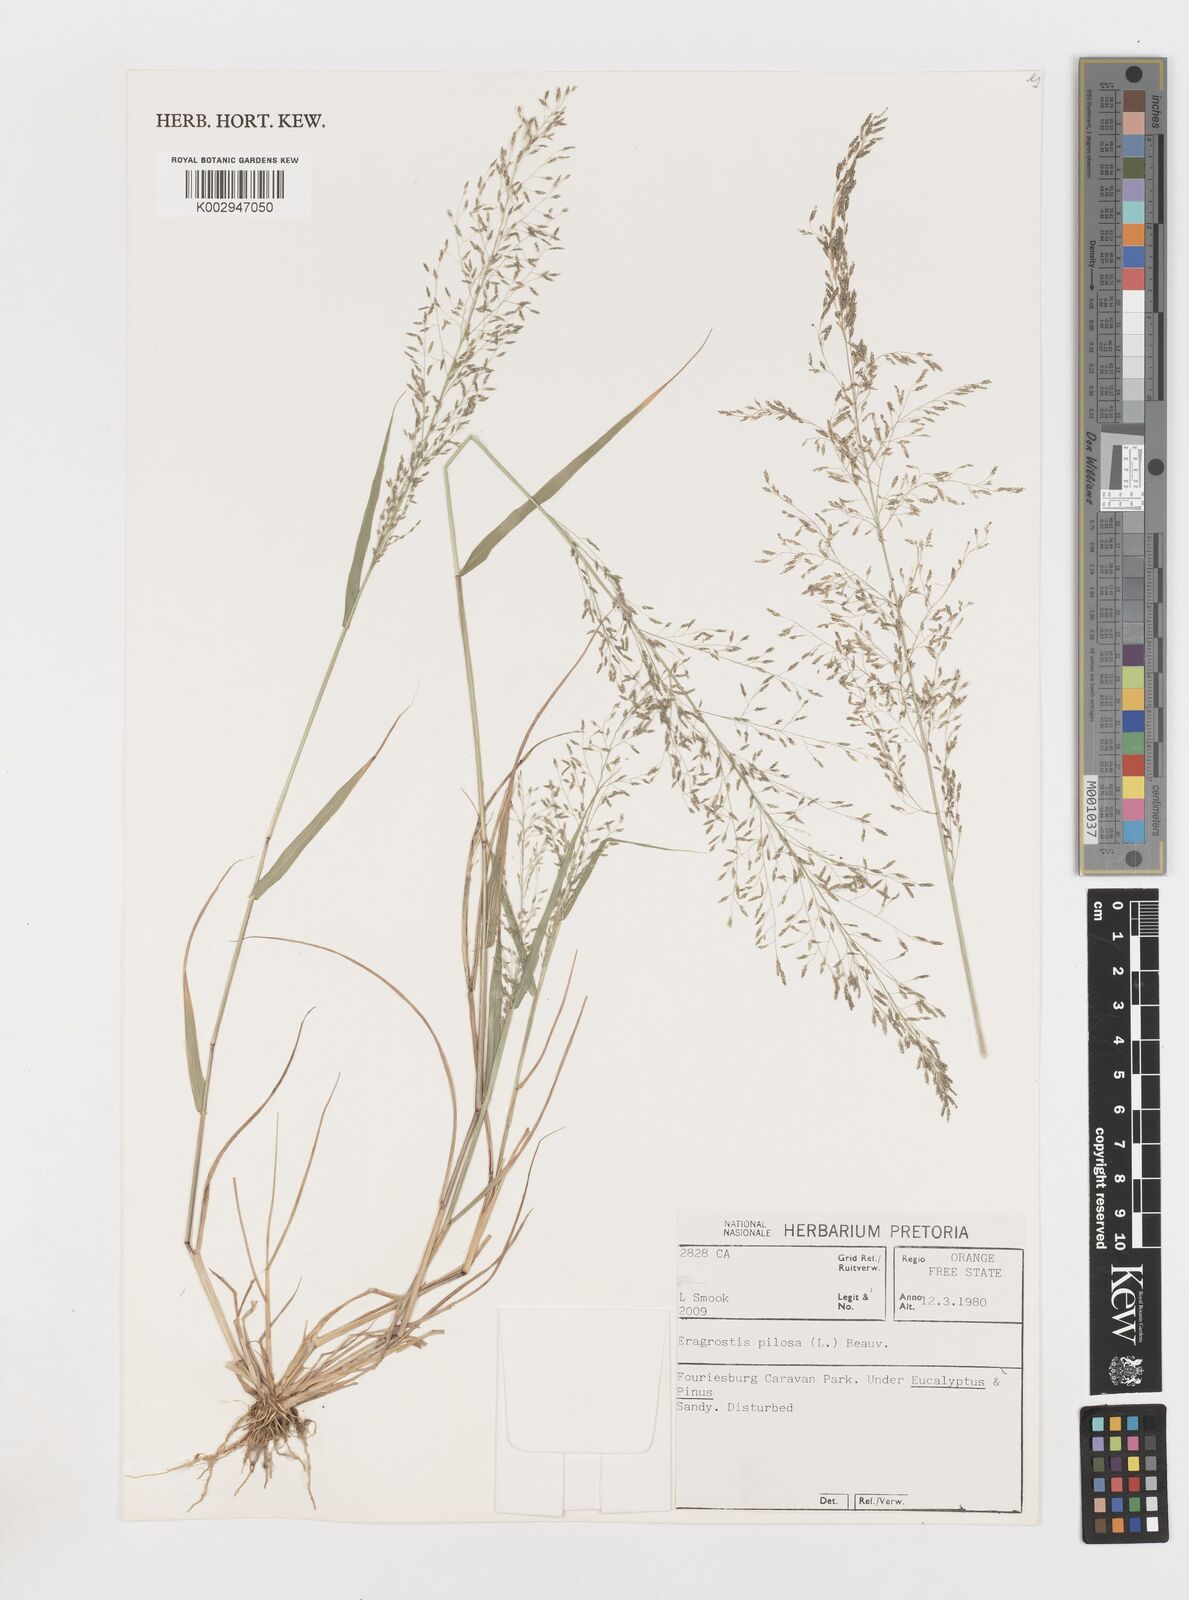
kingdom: Plantae
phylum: Tracheophyta
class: Liliopsida
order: Poales
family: Poaceae
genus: Eragrostis
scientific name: Eragrostis pilosa
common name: Indian lovegrass
